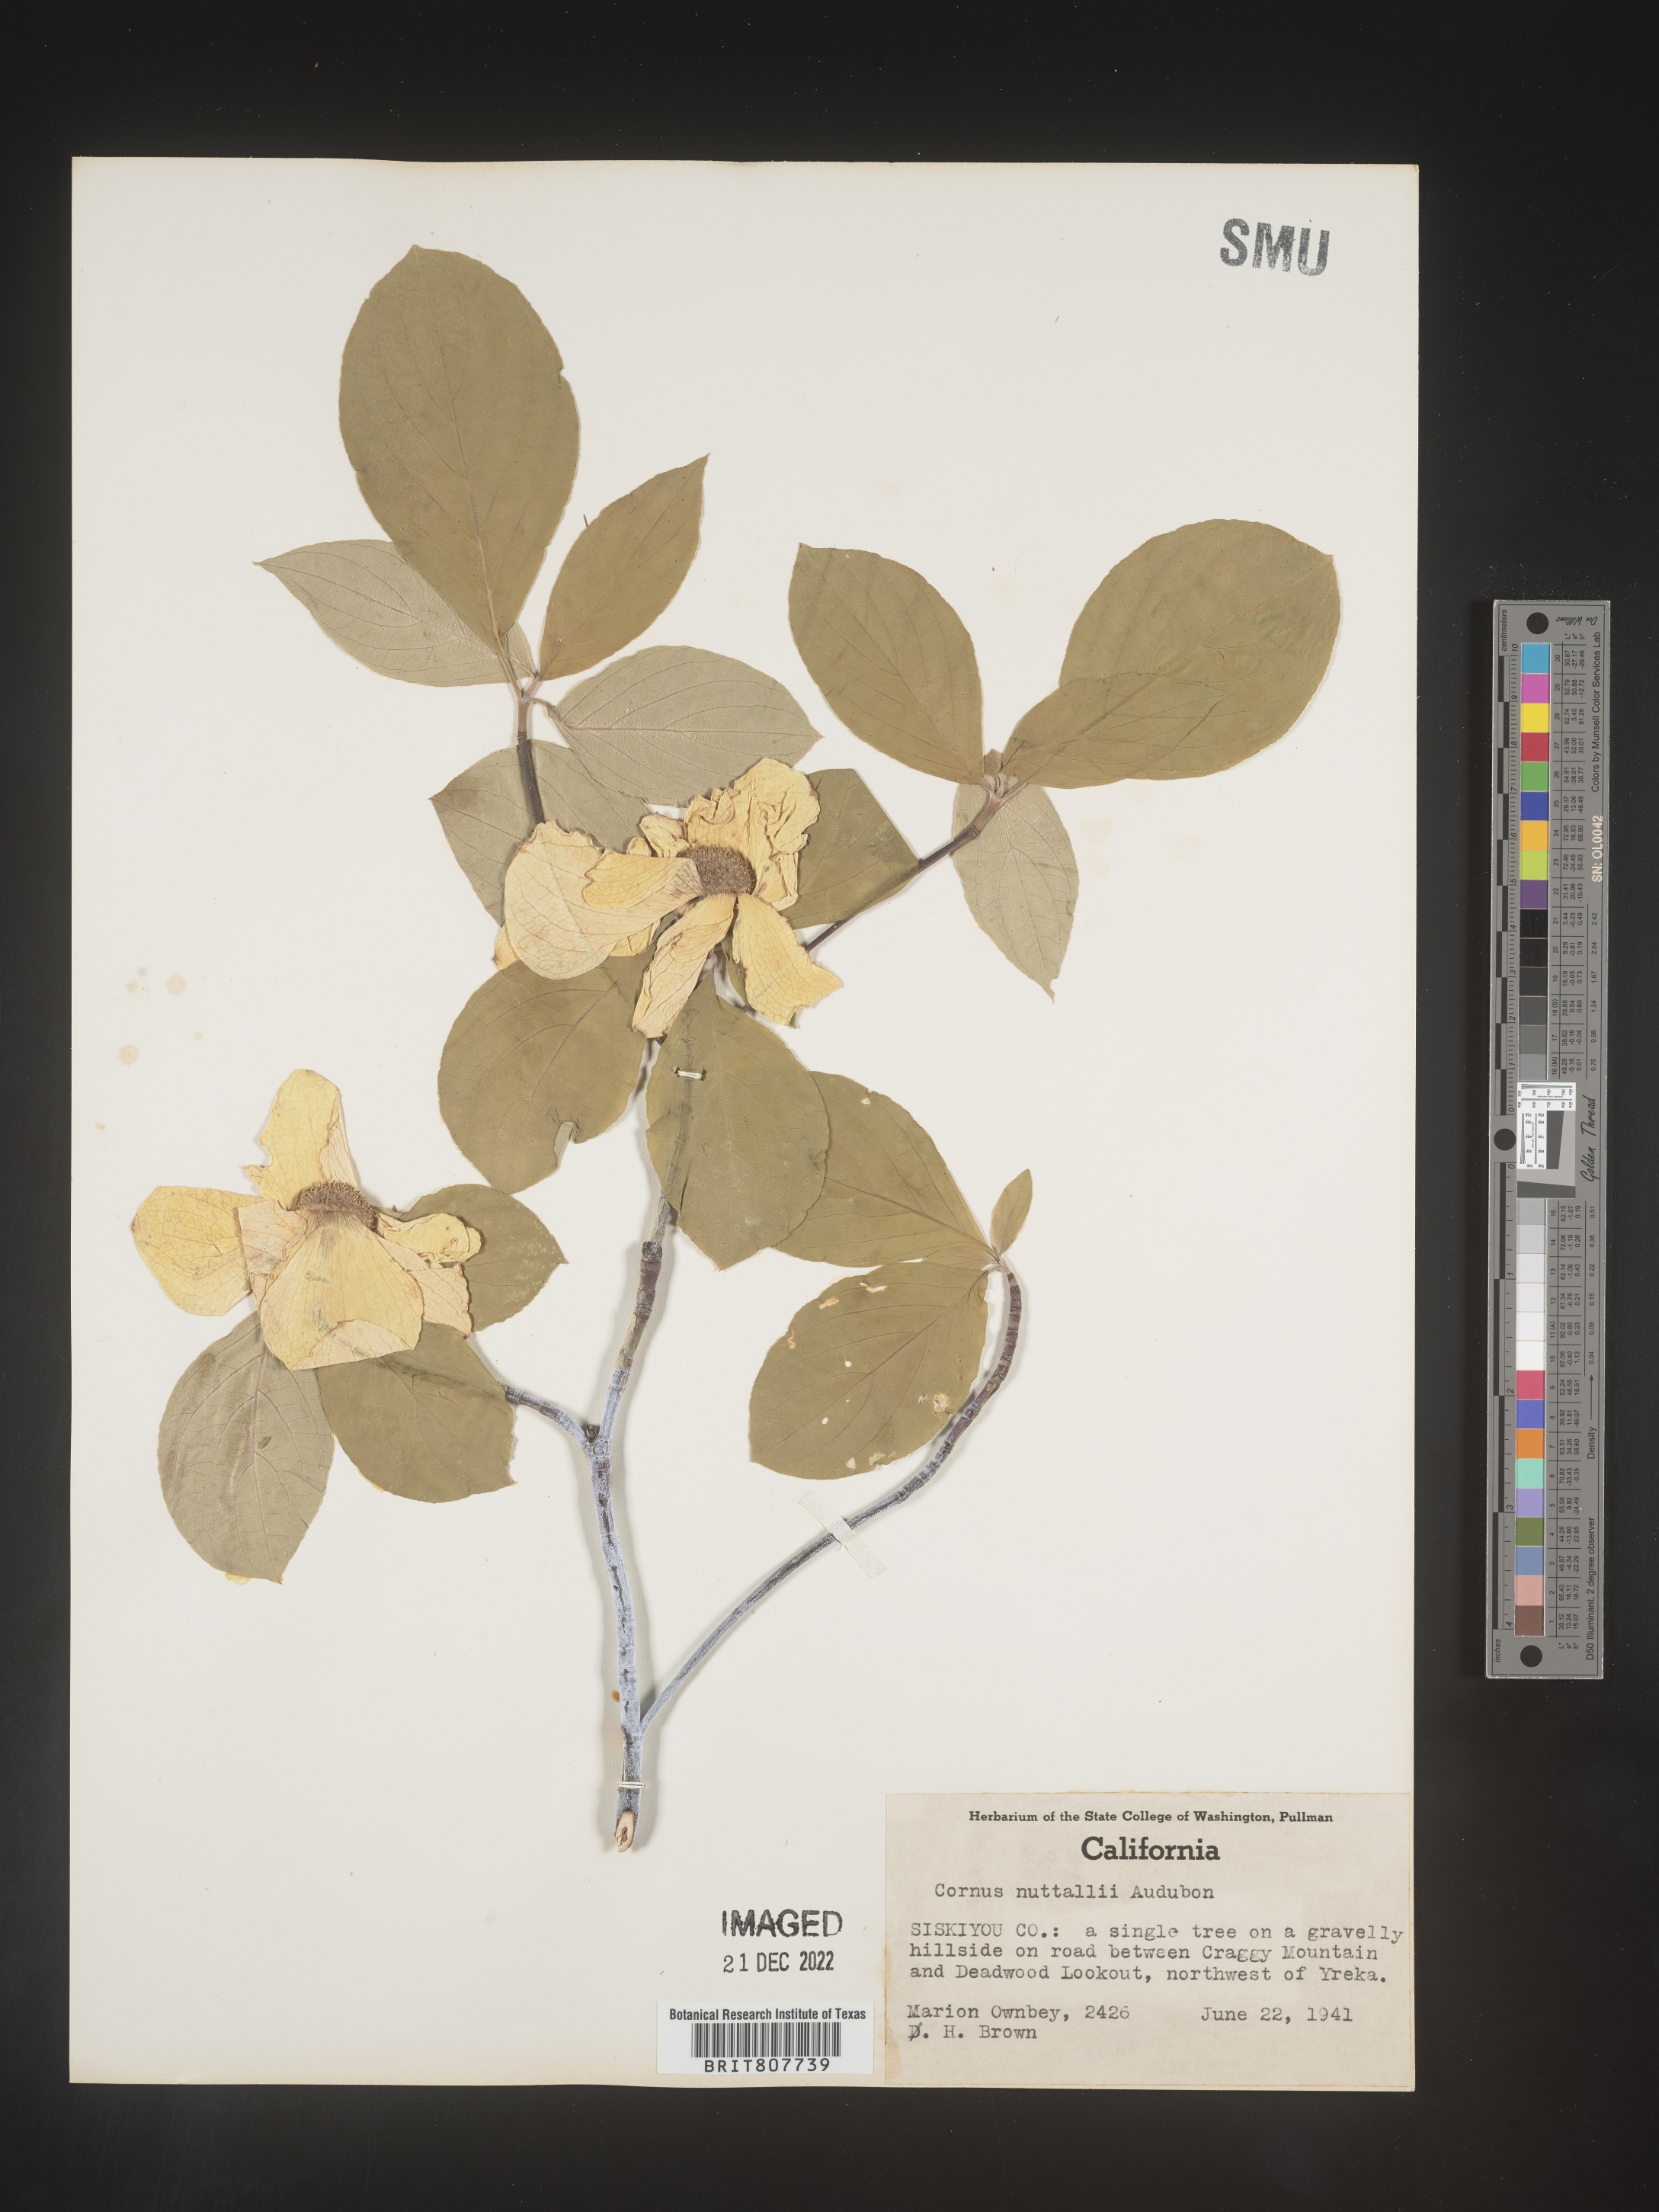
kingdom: Plantae
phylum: Tracheophyta
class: Magnoliopsida
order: Cornales
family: Cornaceae
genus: Cornus
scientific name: Cornus nuttallii
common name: Pacific dogwood
